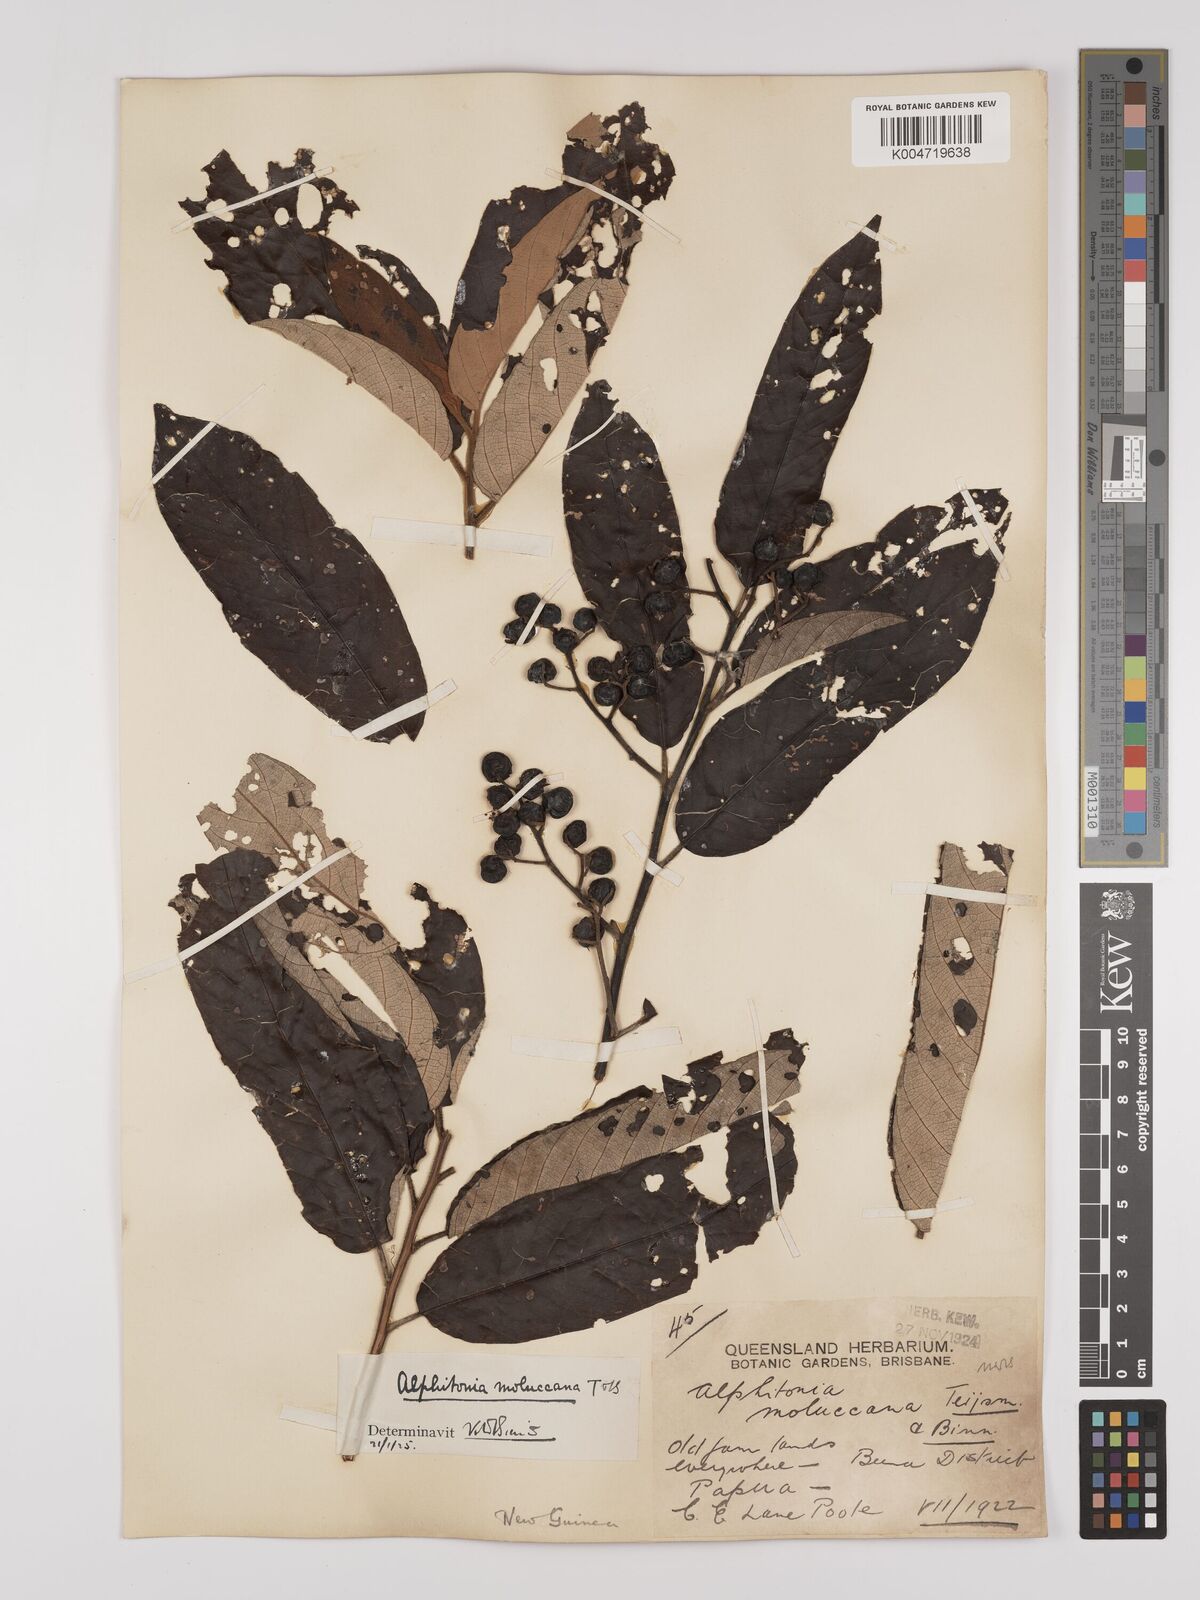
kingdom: Plantae
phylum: Tracheophyta
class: Magnoliopsida
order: Rosales
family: Rhamnaceae
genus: Alphitonia
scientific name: Alphitonia incana
